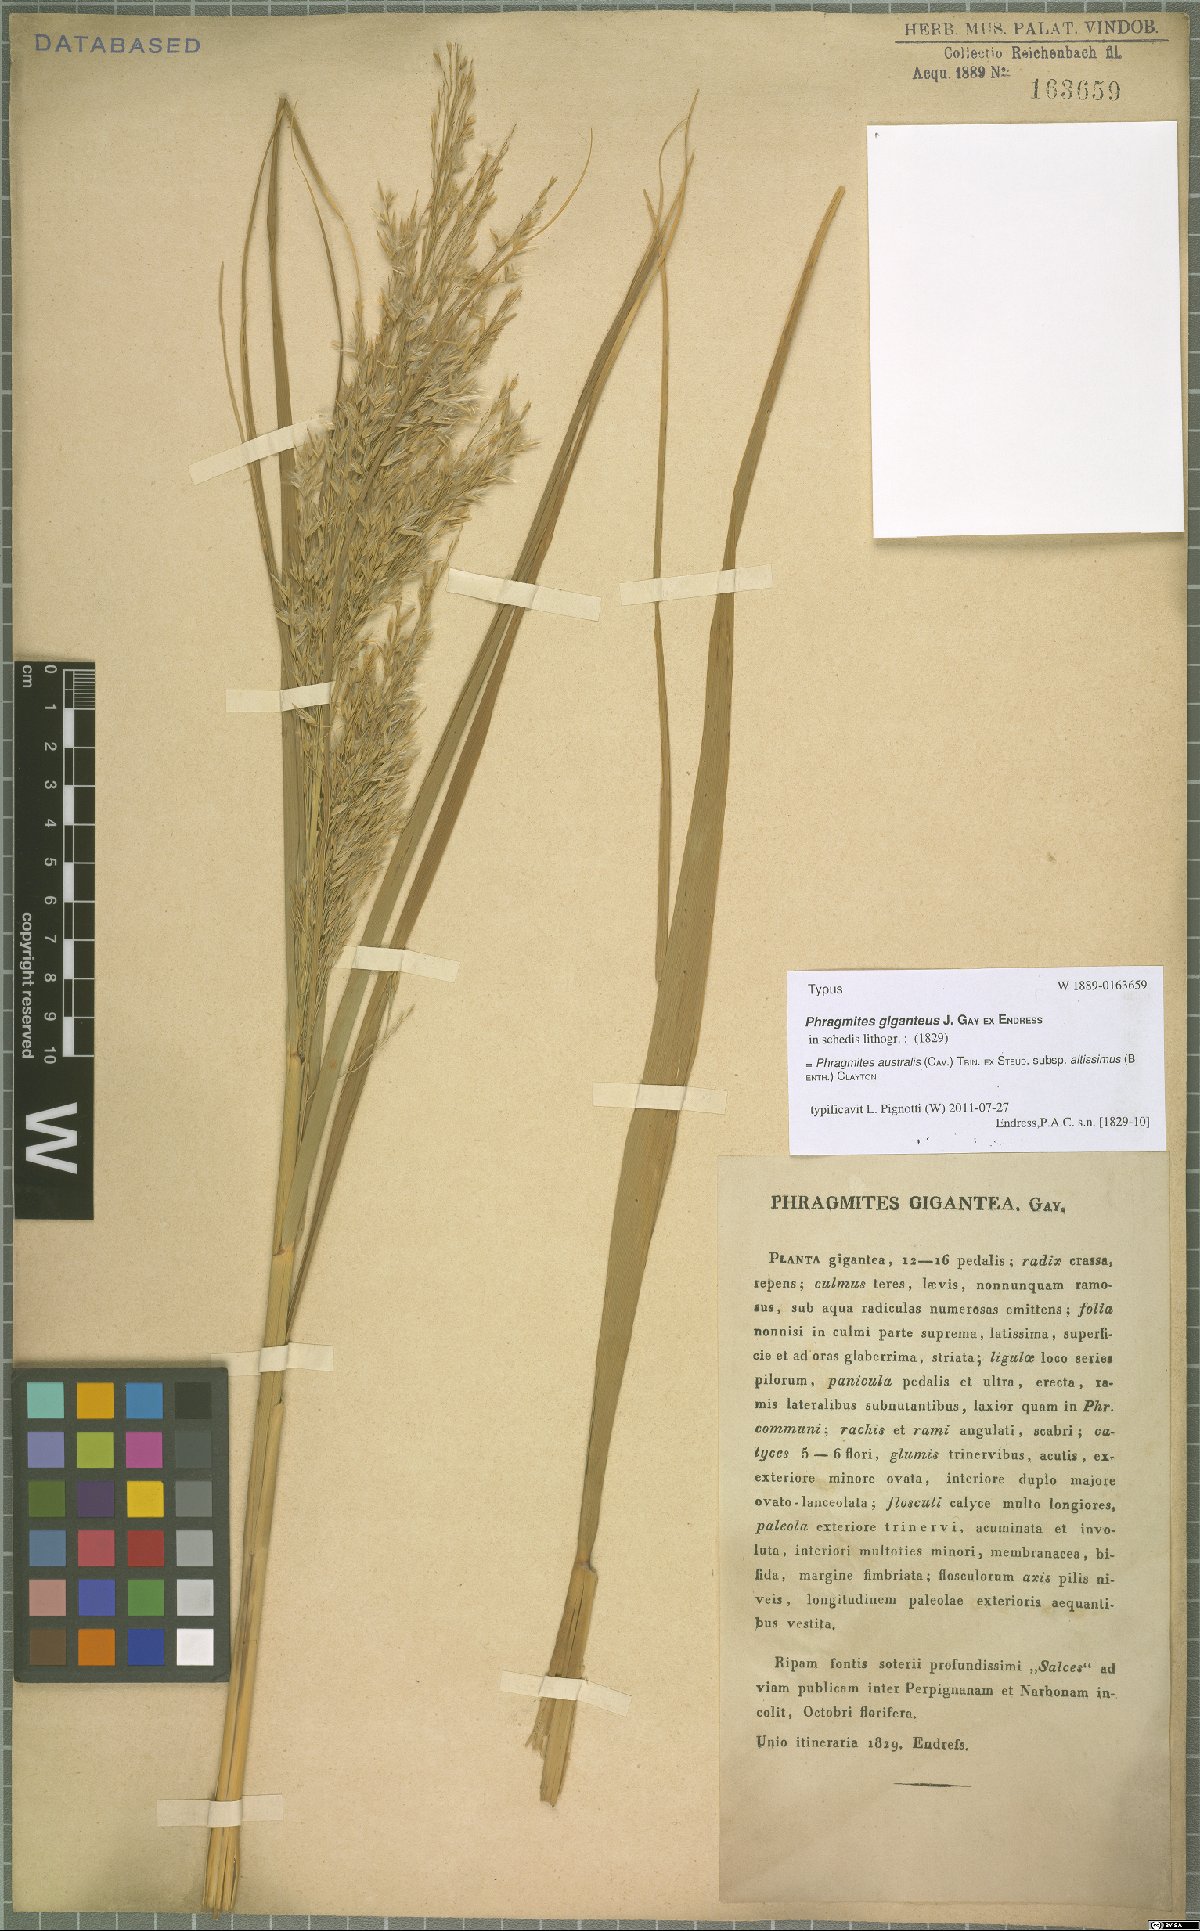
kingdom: Plantae
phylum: Tracheophyta
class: Liliopsida
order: Poales
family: Poaceae
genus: Phragmites
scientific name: Phragmites australis
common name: Common reed
